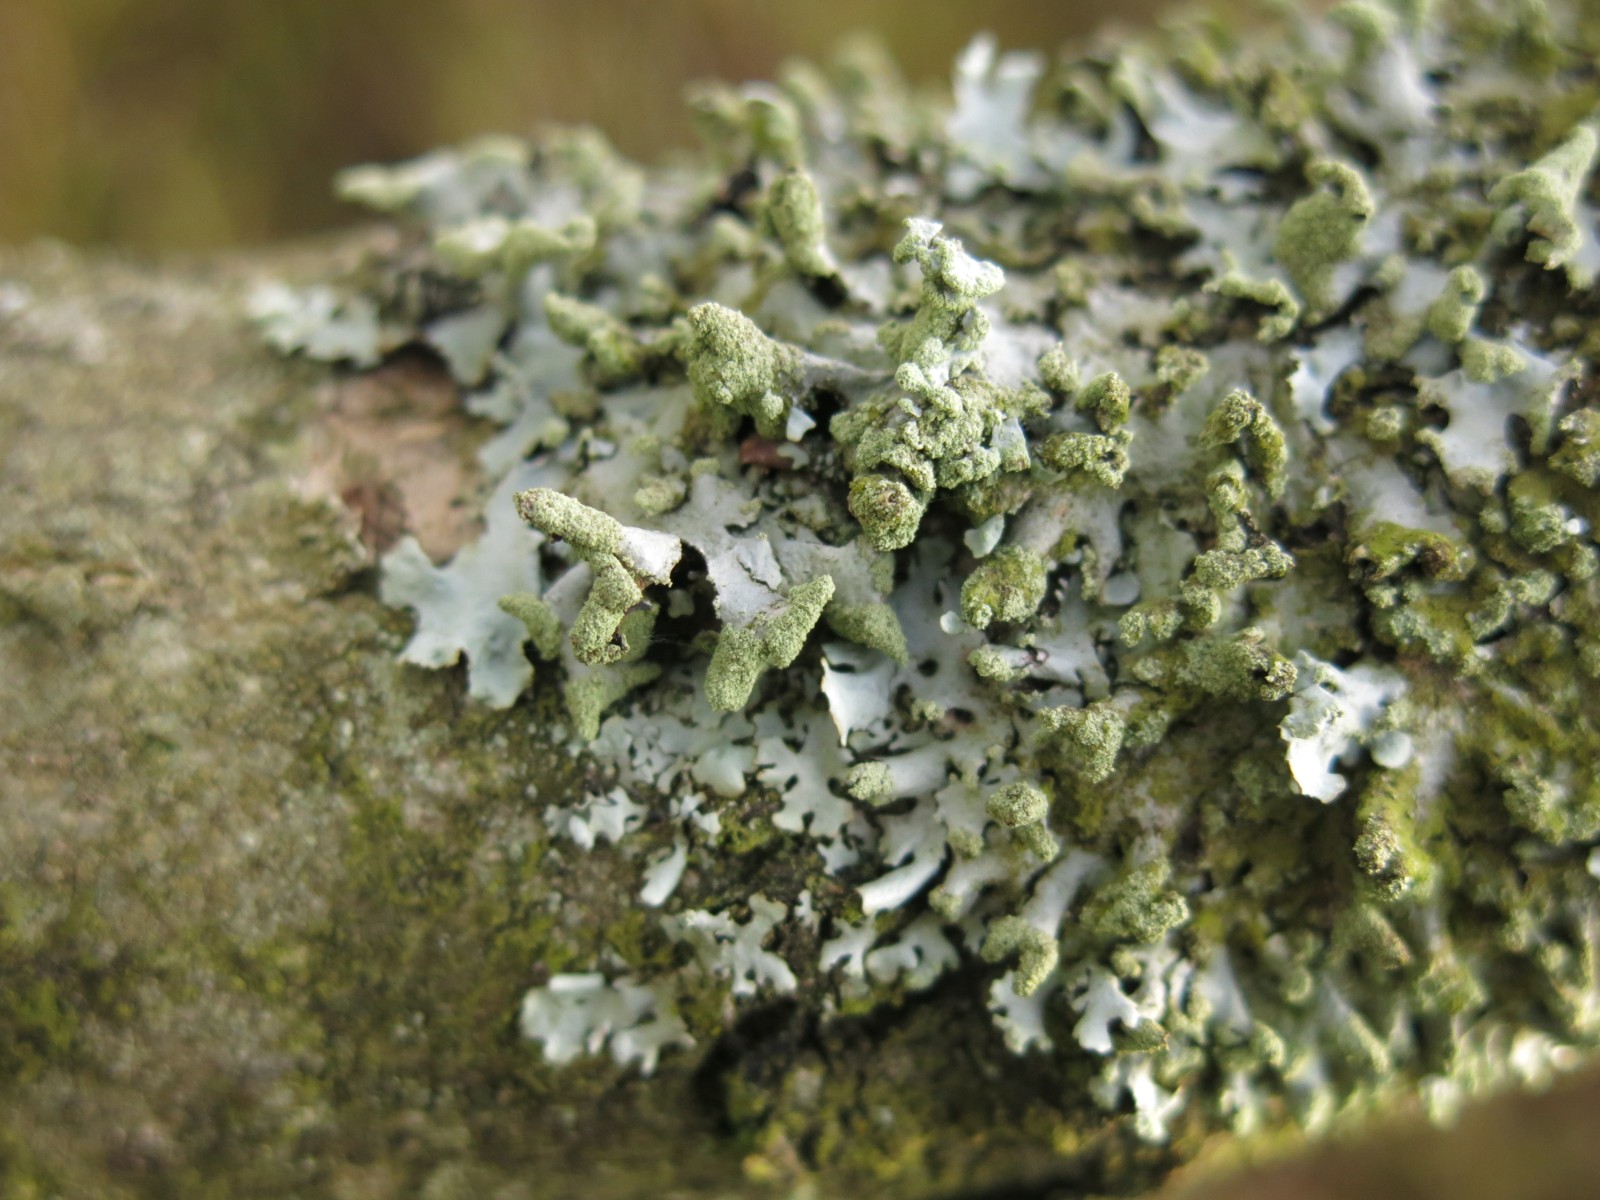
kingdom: Fungi
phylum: Ascomycota
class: Lecanoromycetes
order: Lecanorales
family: Parmeliaceae
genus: Hypotrachyna
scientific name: Hypotrachyna revoluta
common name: bleggrå skållav
